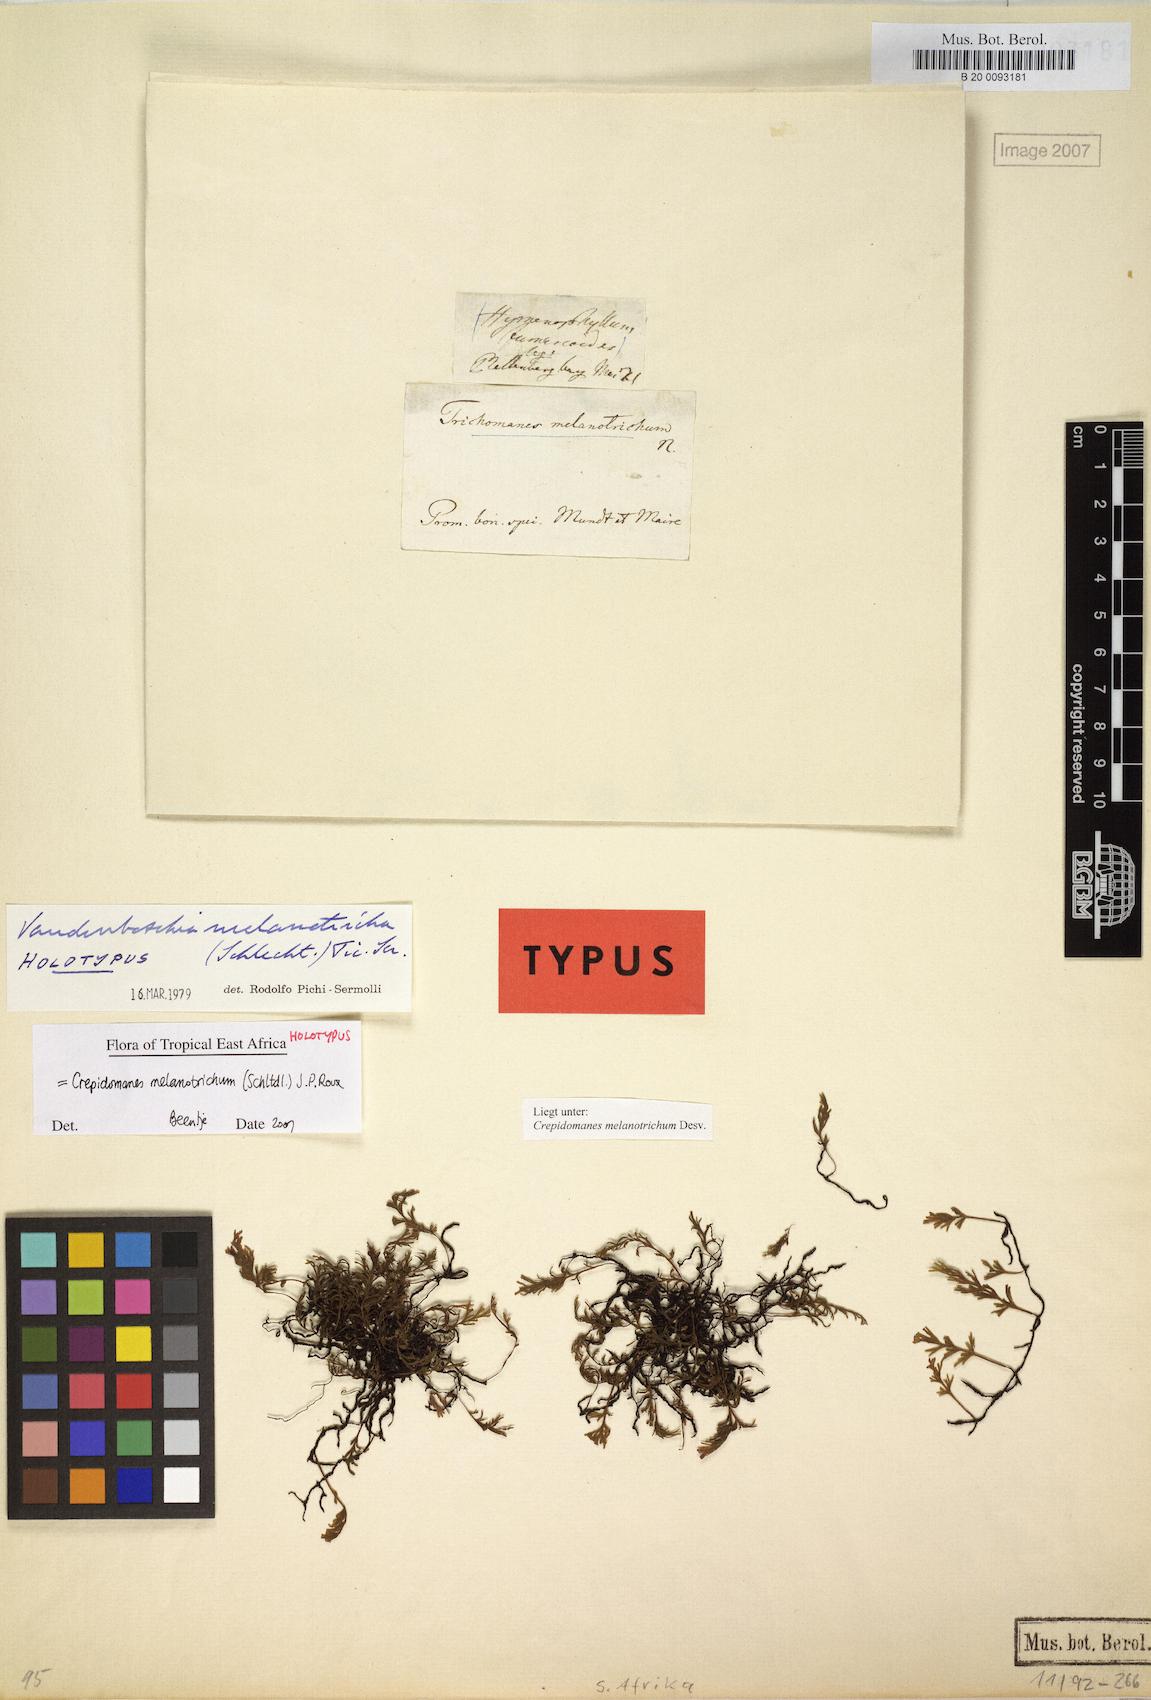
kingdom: Plantae
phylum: Tracheophyta
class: Polypodiopsida
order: Hymenophyllales
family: Hymenophyllaceae
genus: Crepidomanes
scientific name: Crepidomanes melanotrichum
